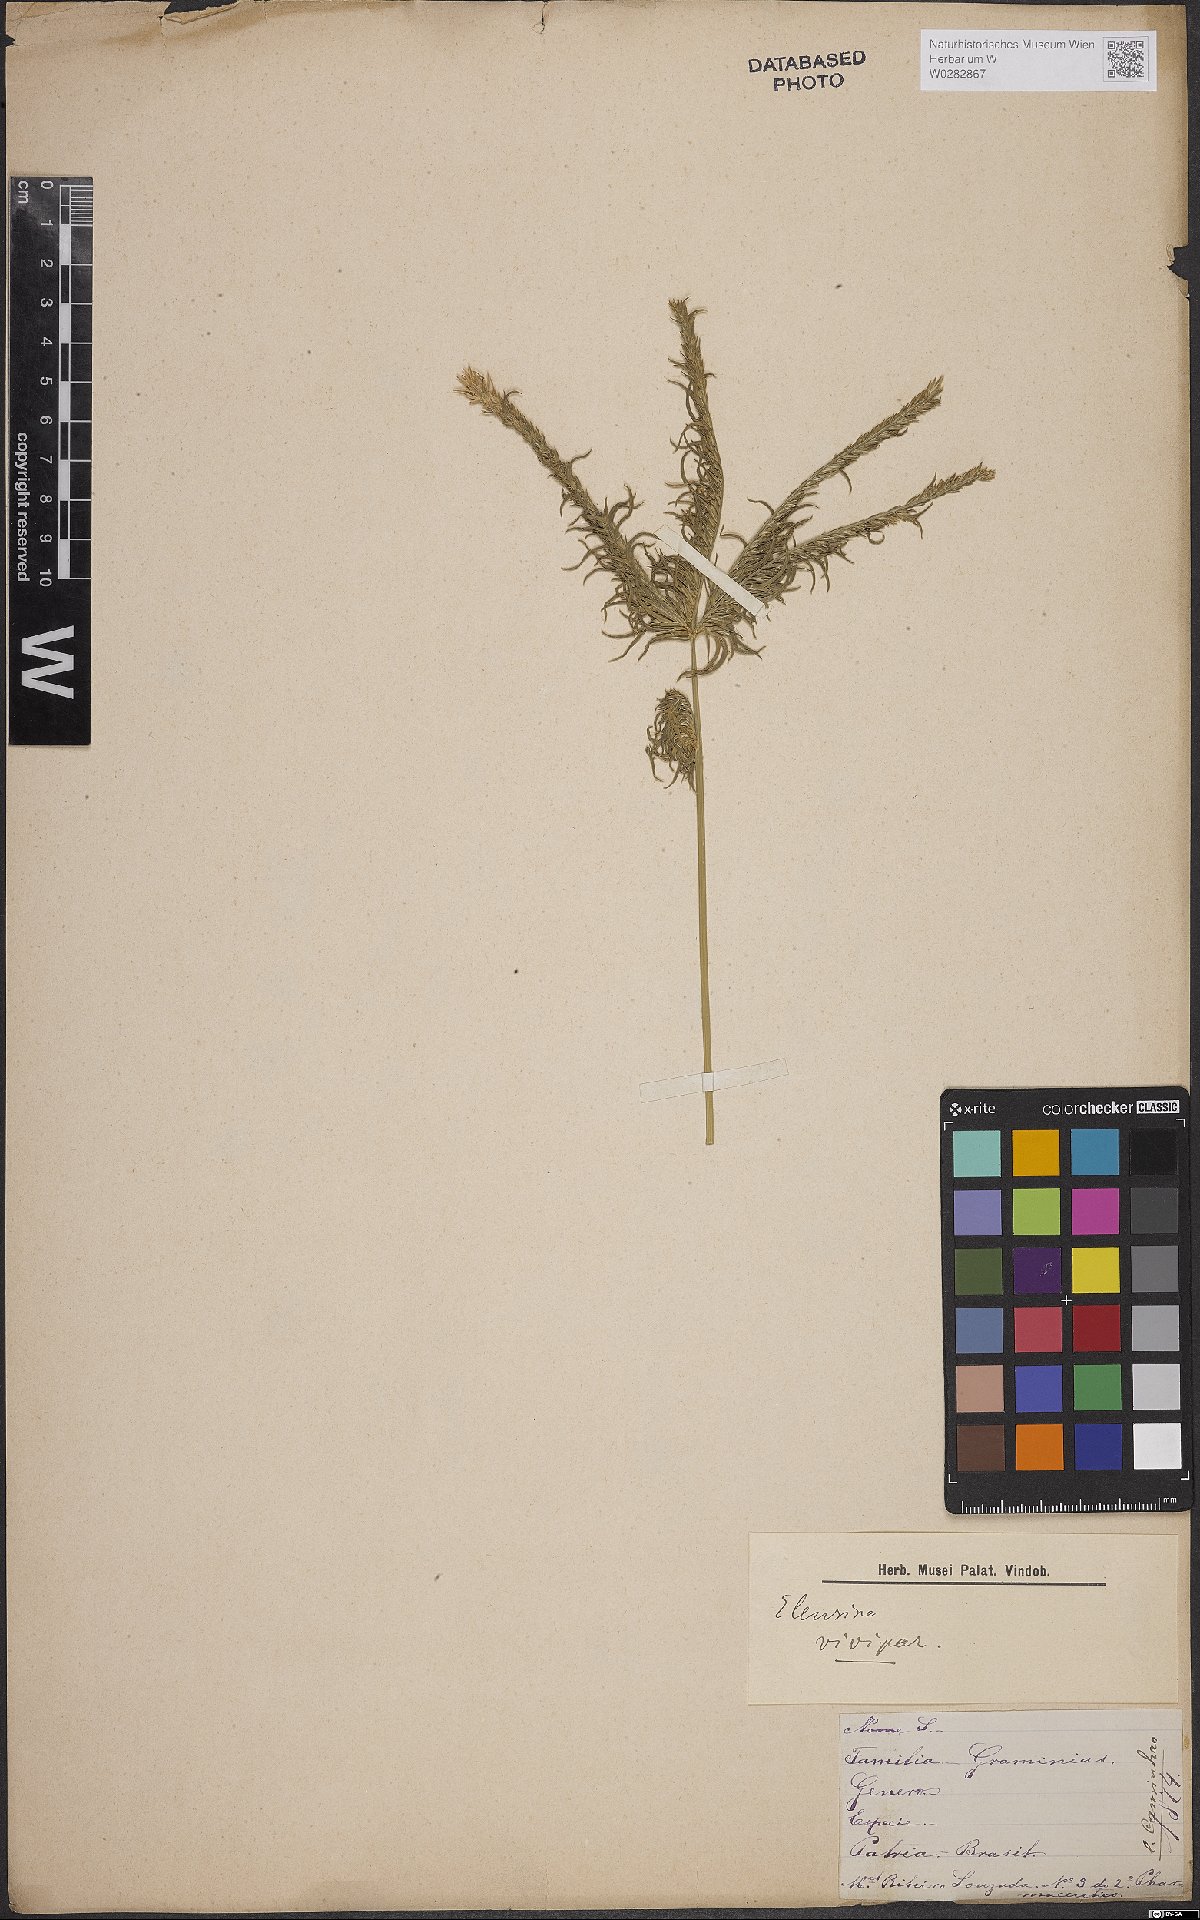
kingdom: Plantae
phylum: Tracheophyta
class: Liliopsida
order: Poales
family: Poaceae
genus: Eleusine
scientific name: Eleusine
